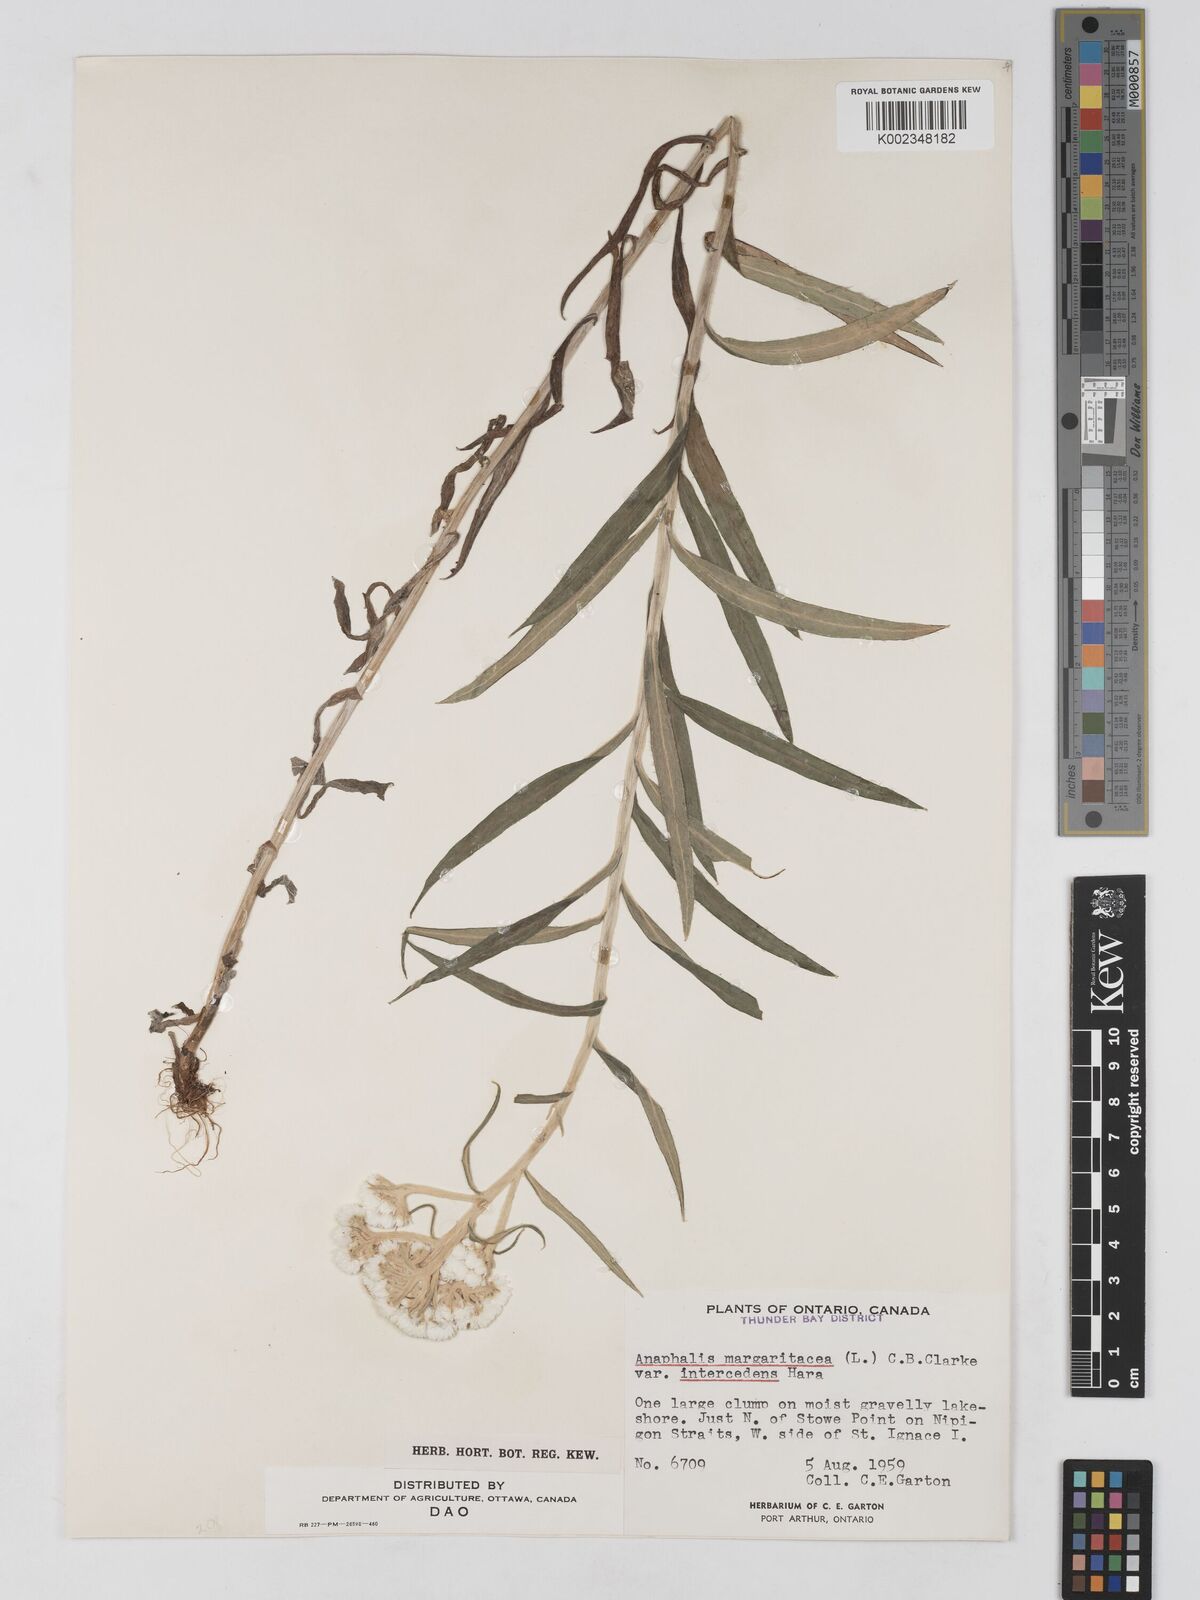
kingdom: Plantae
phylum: Tracheophyta
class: Magnoliopsida
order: Asterales
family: Asteraceae
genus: Anaphalis
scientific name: Anaphalis margaritacea
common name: Pearly everlasting
